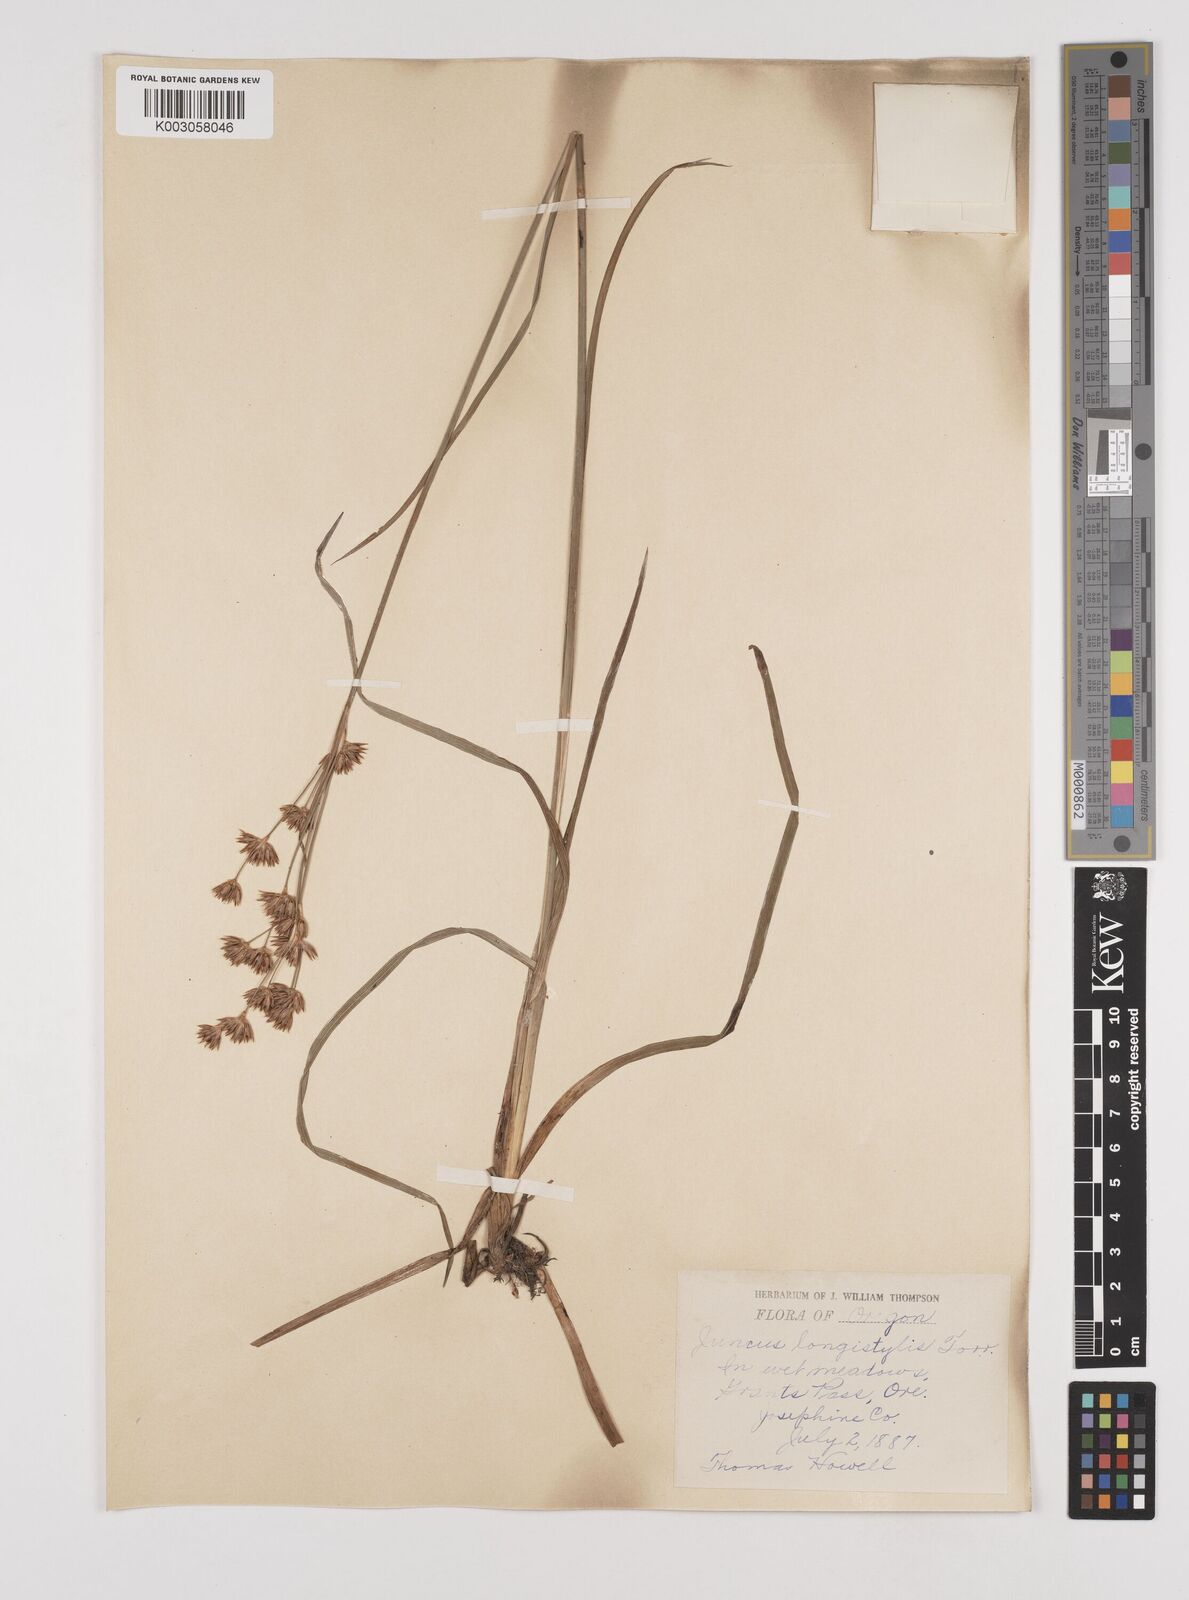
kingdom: Plantae
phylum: Tracheophyta
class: Liliopsida
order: Poales
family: Juncaceae
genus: Juncus
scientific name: Juncus longistylis
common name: Long-style rush
